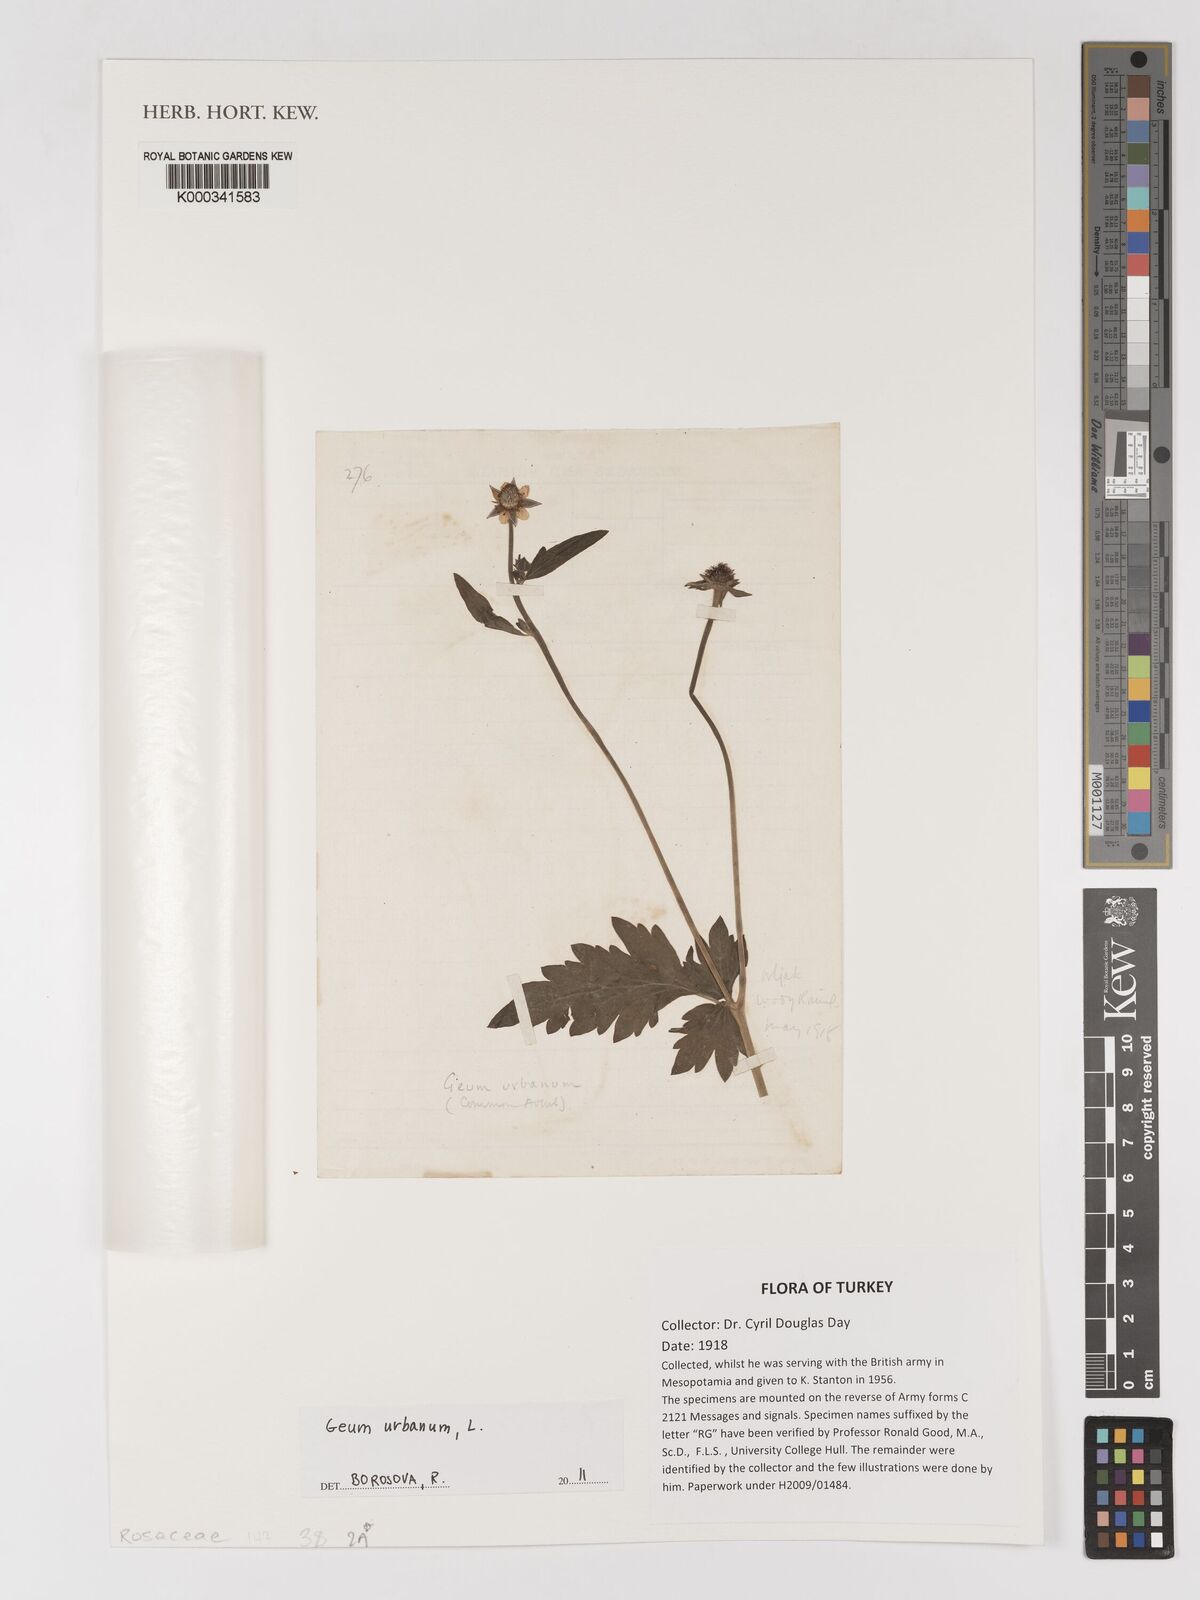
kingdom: Plantae
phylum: Tracheophyta
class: Magnoliopsida
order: Rosales
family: Rosaceae
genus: Geum
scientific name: Geum urbanum
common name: Wood avens
